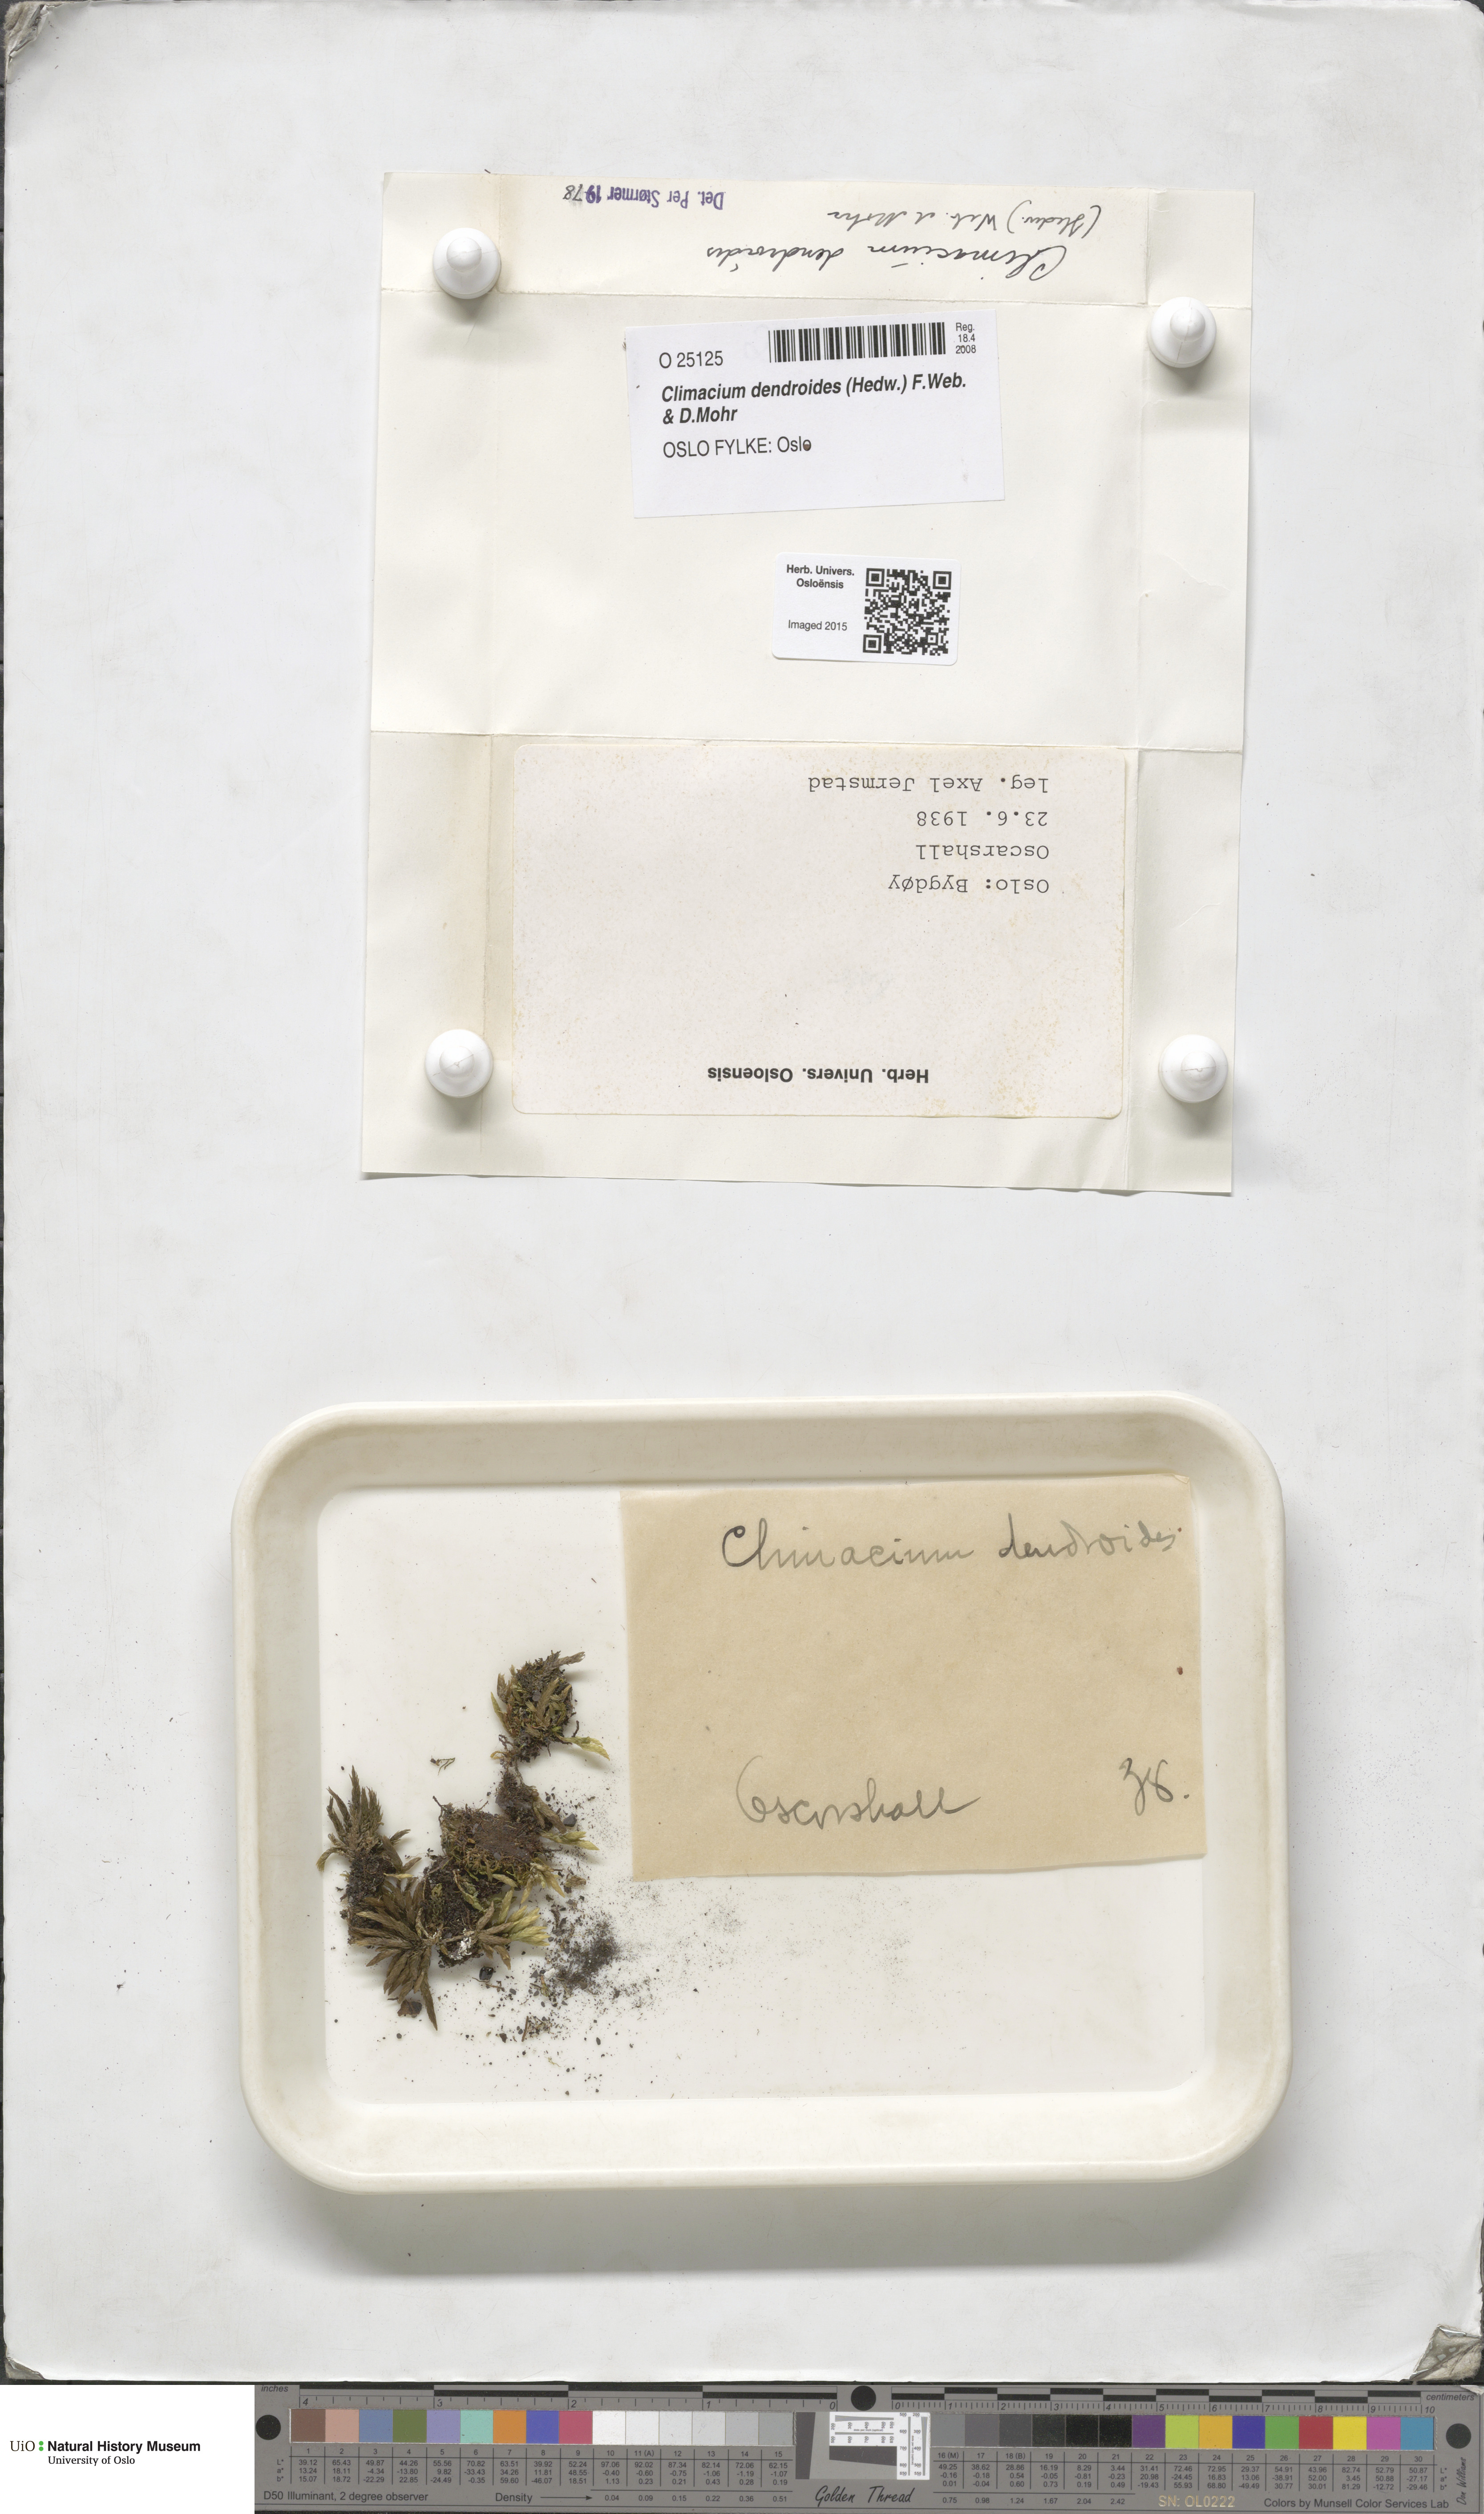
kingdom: Plantae
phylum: Bryophyta
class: Bryopsida
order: Hypnales
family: Climaciaceae
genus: Climacium
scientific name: Climacium dendroides
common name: Northern tree moss
